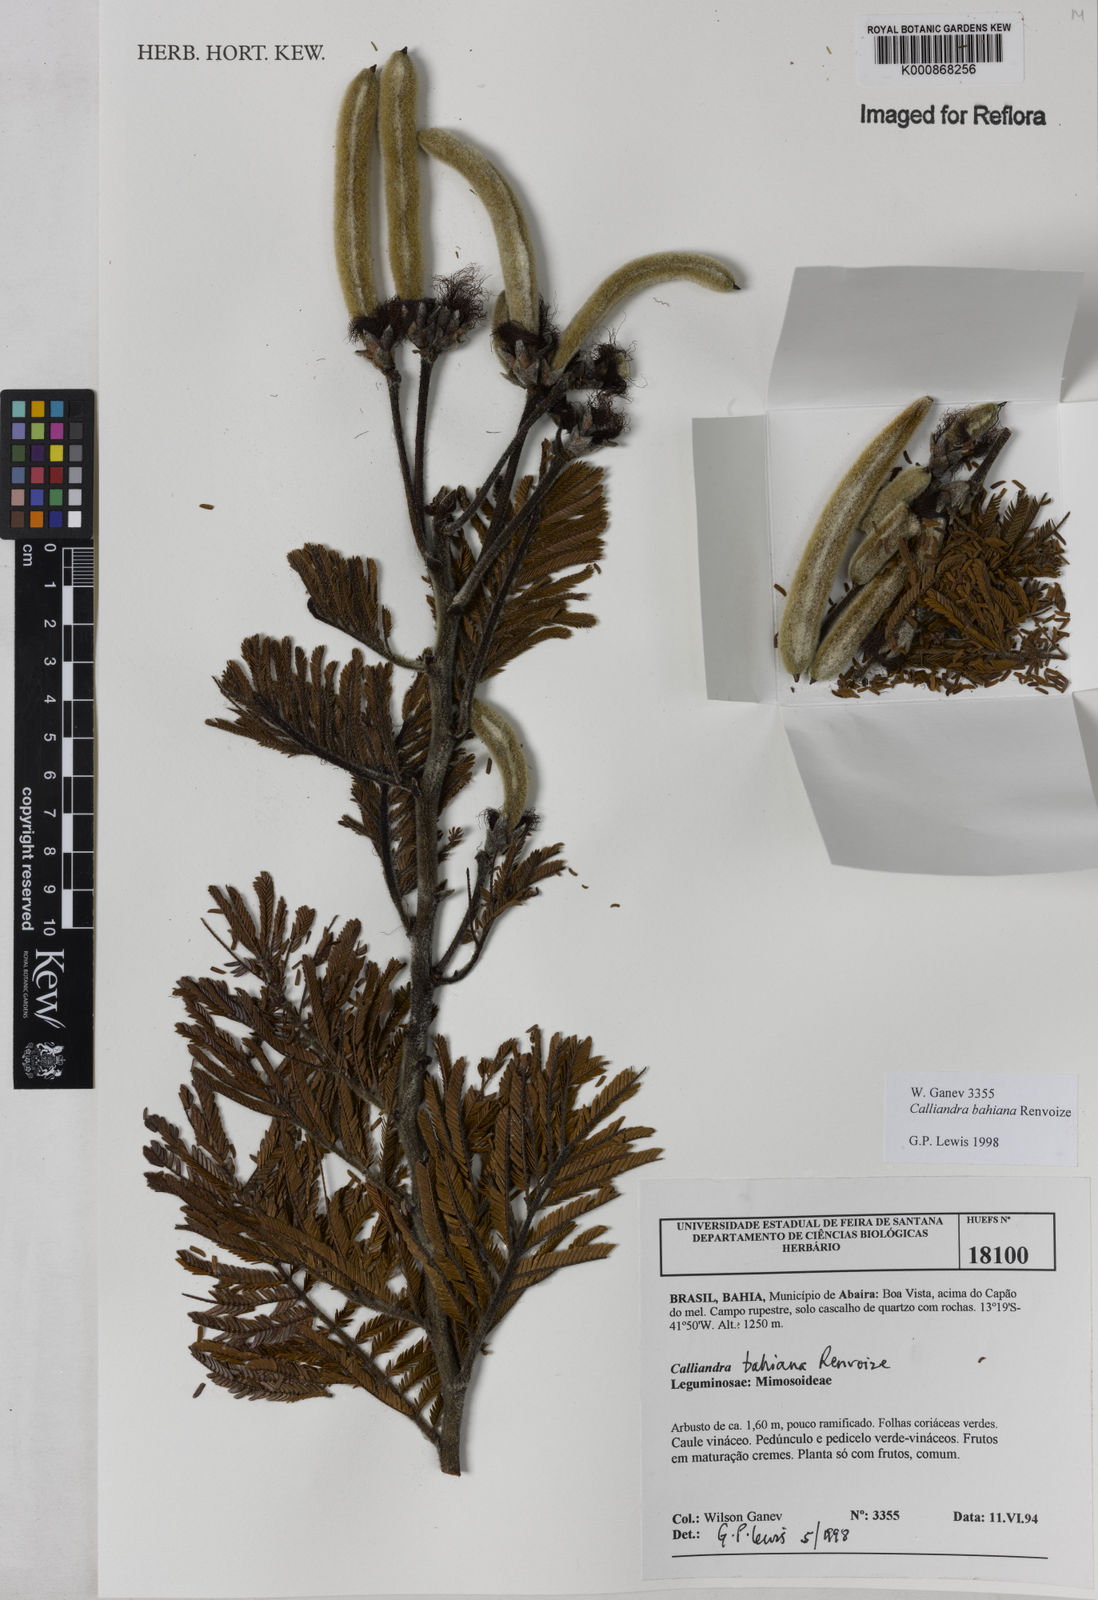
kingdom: Plantae
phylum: Tracheophyta
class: Magnoliopsida
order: Fabales
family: Fabaceae
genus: Calliandra
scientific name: Calliandra bahiana
